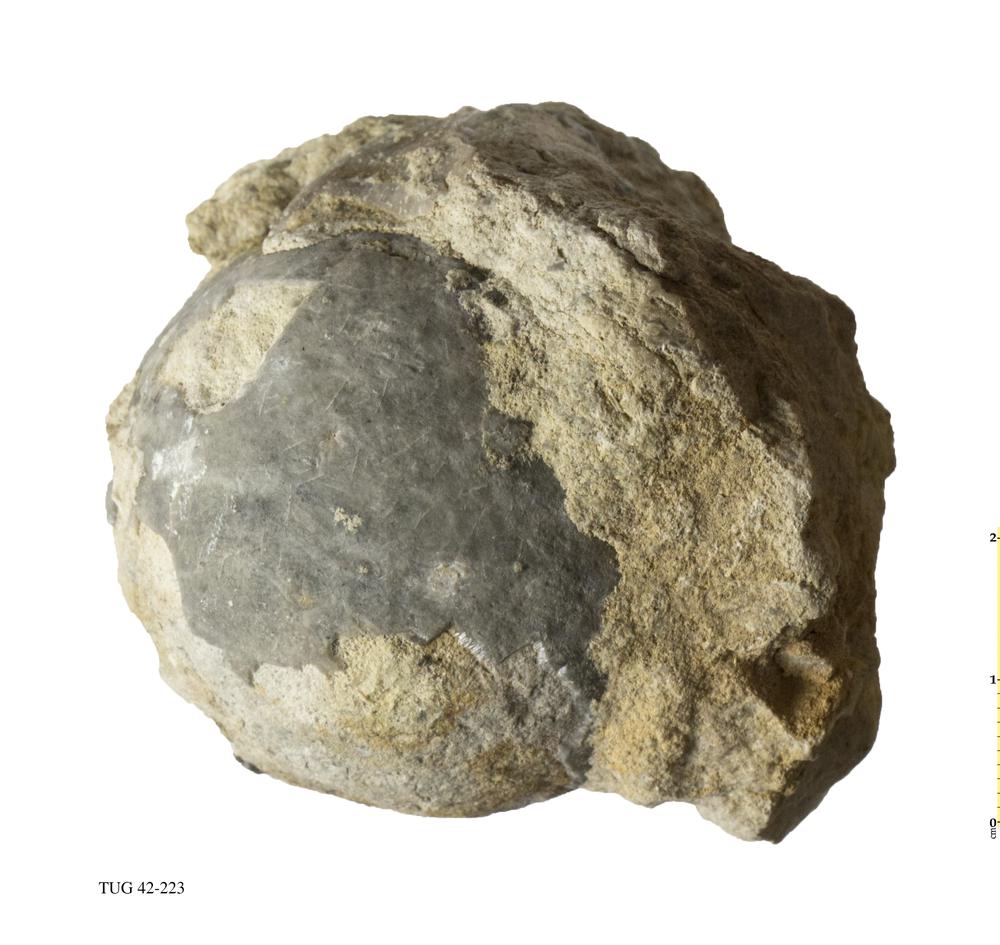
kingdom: Animalia
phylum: Echinodermata
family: Sphaeronitidae
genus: Sphaeronites
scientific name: Sphaeronites
